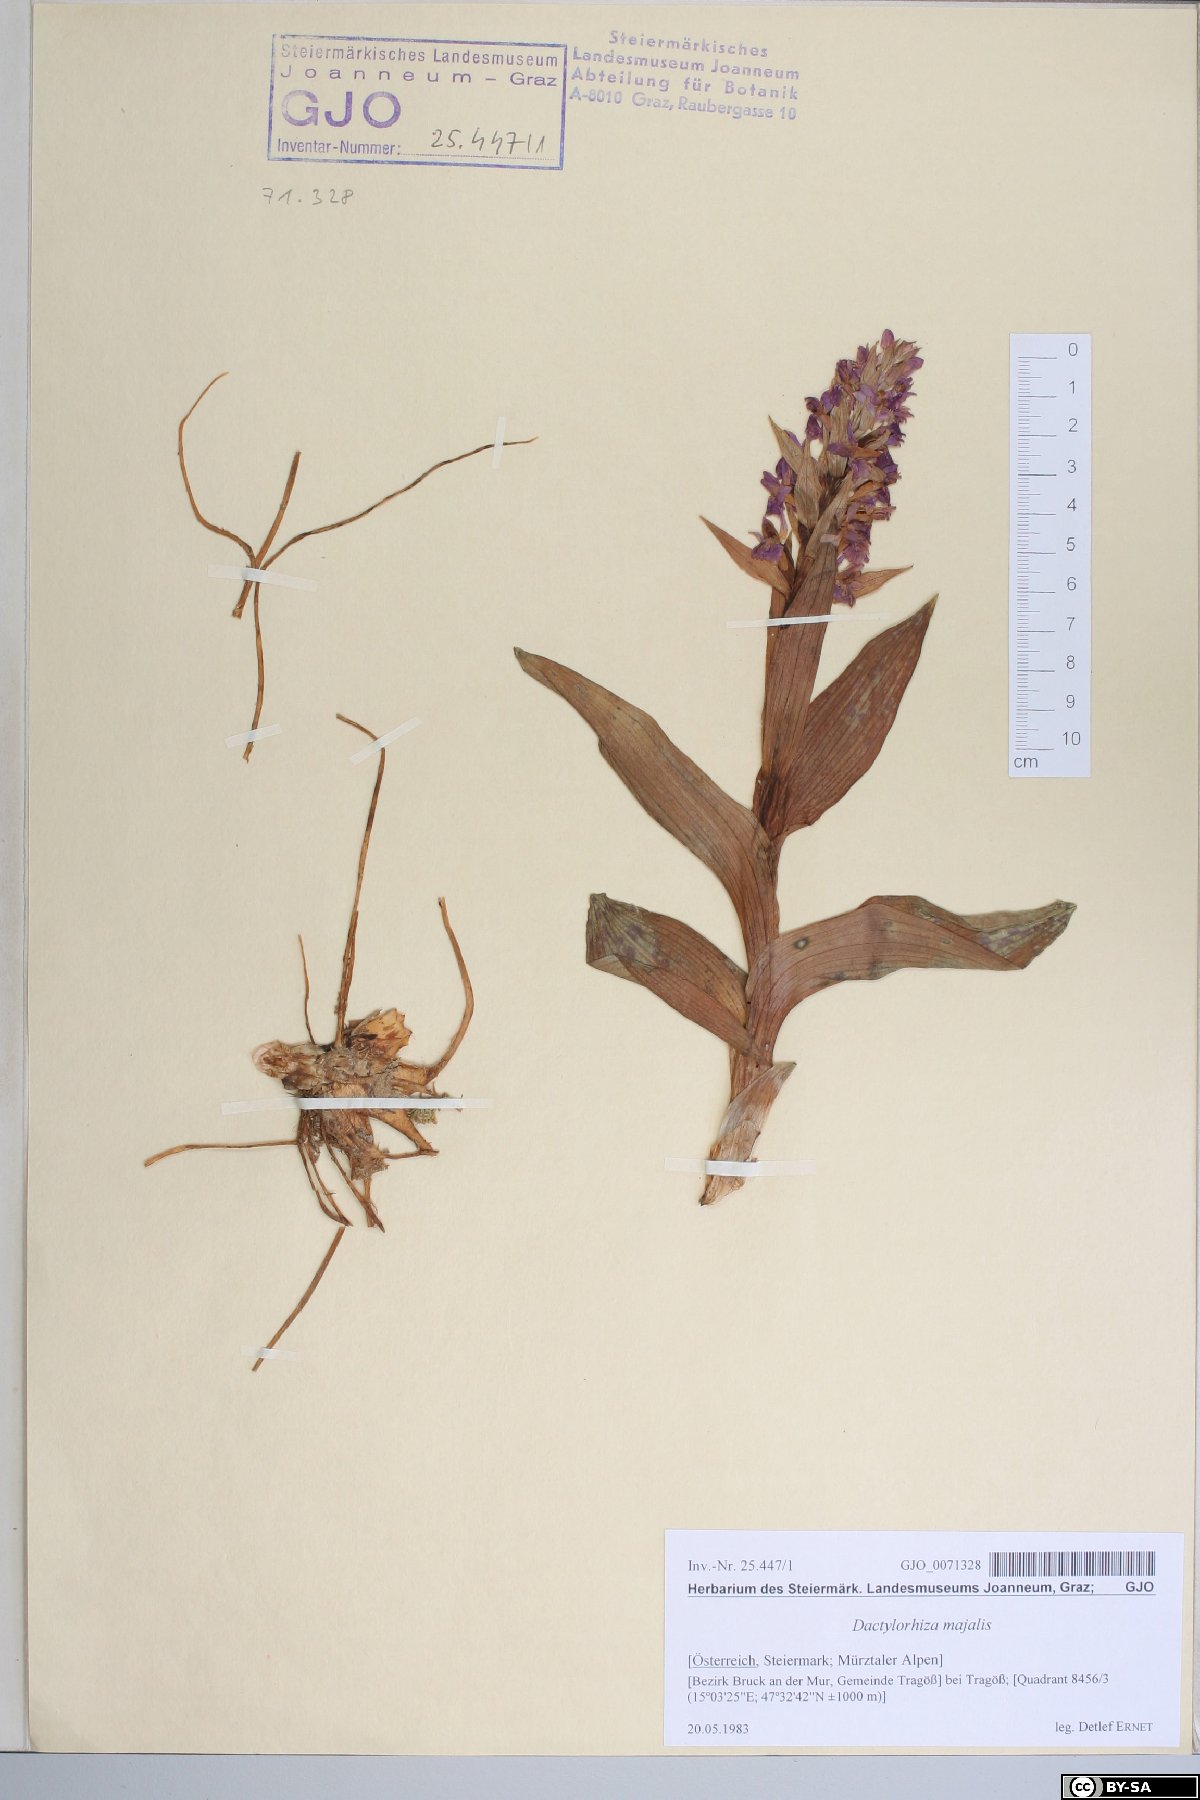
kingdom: Plantae
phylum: Tracheophyta
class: Liliopsida
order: Asparagales
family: Orchidaceae
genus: Dactylorhiza
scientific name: Dactylorhiza majalis
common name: Marsh orchid
